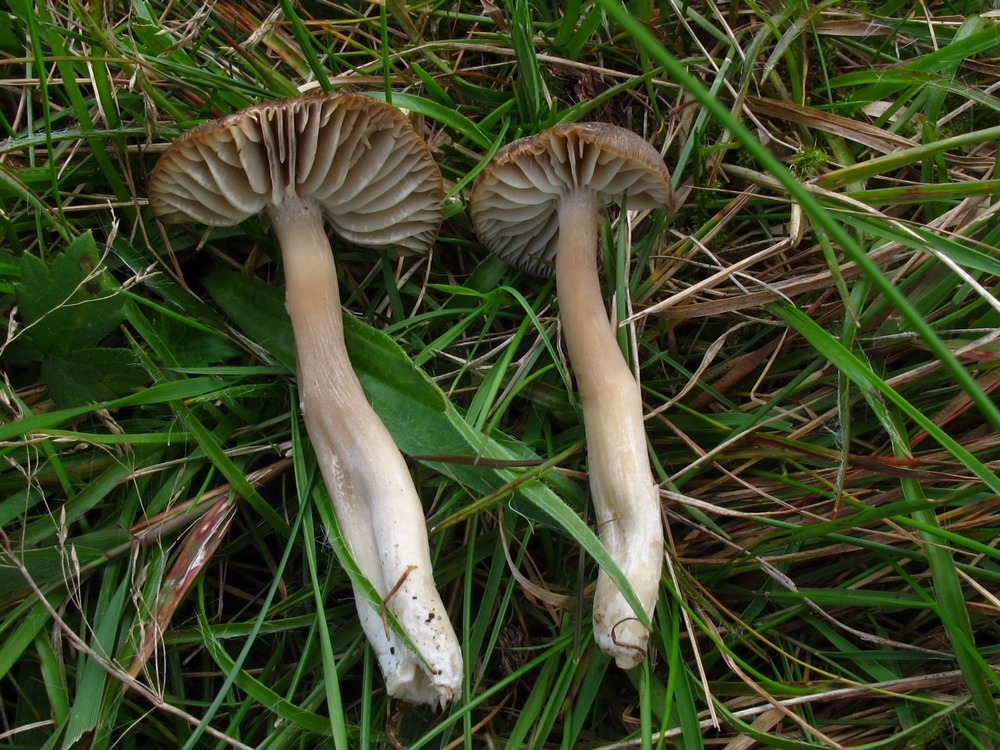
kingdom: Fungi
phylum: Basidiomycota
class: Agaricomycetes
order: Agaricales
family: Hygrophoraceae
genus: Neohygrocybe
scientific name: Neohygrocybe nitrata
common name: stinkende vokshat
